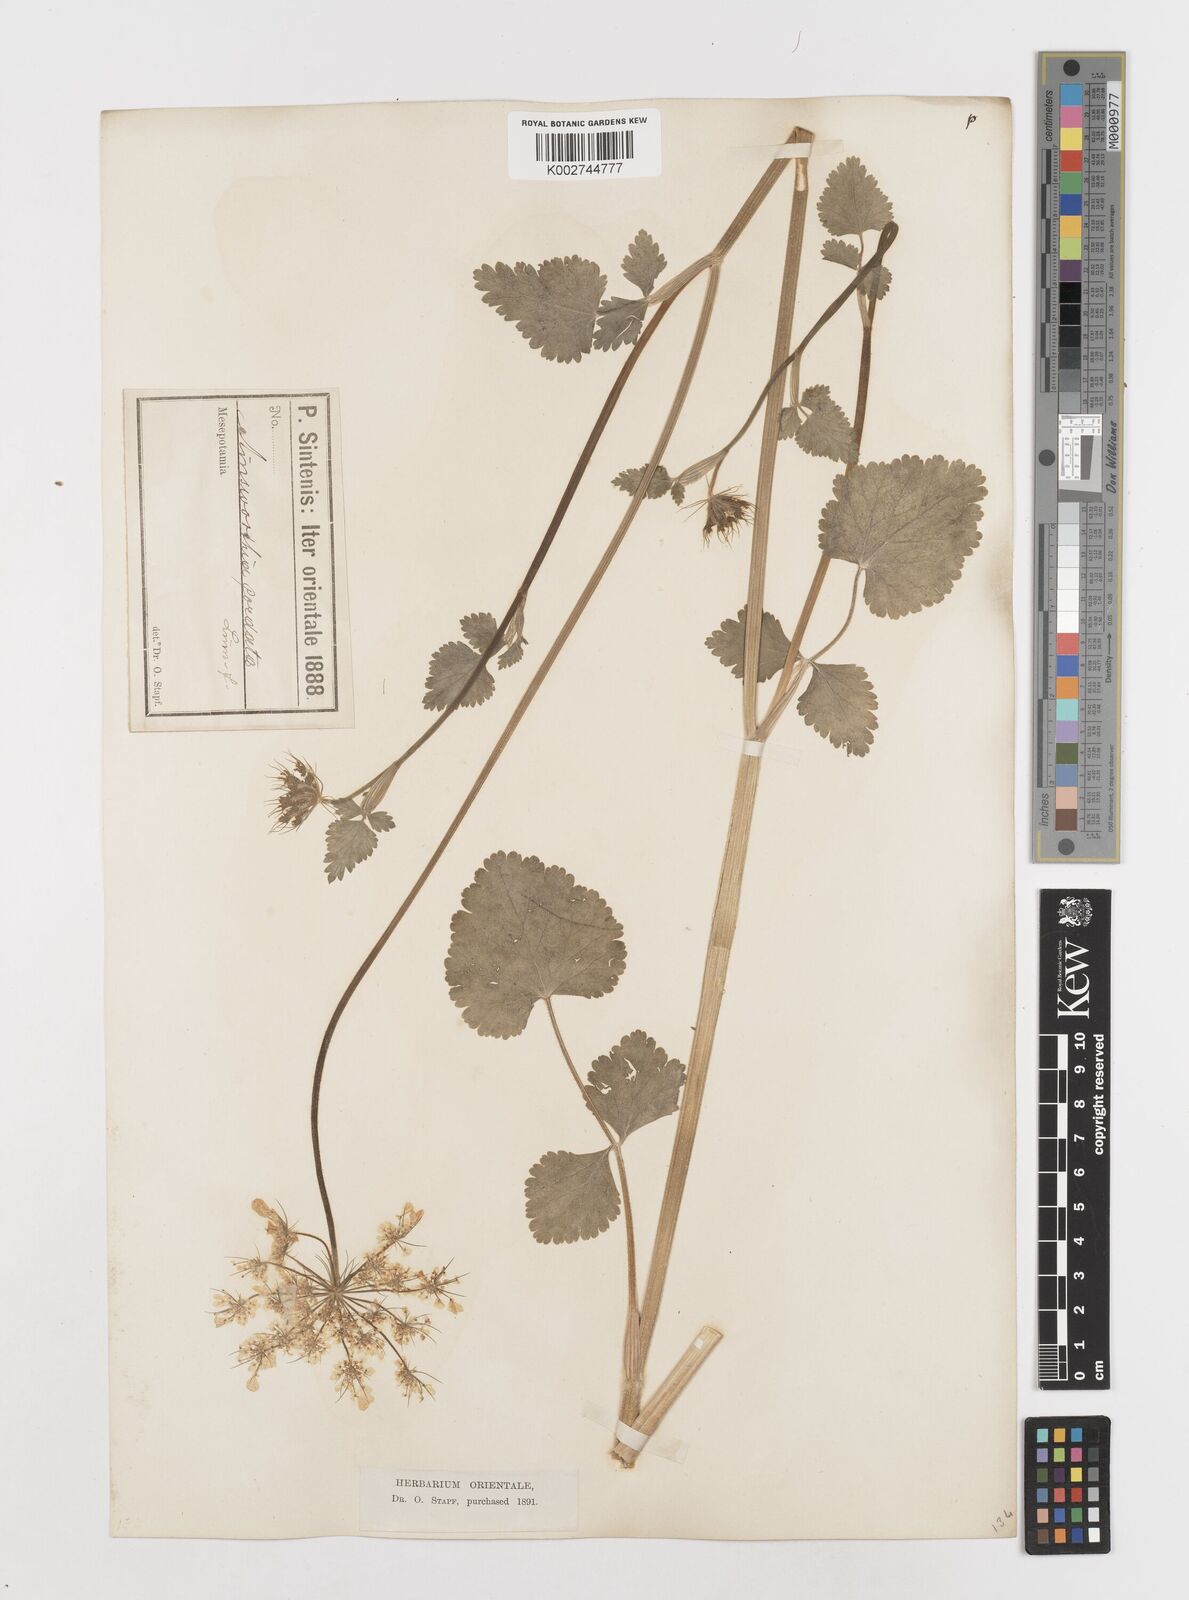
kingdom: Plantae
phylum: Tracheophyta
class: Magnoliopsida
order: Apiales
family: Apiaceae
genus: Ainsworthia
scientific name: Ainsworthia cordata
